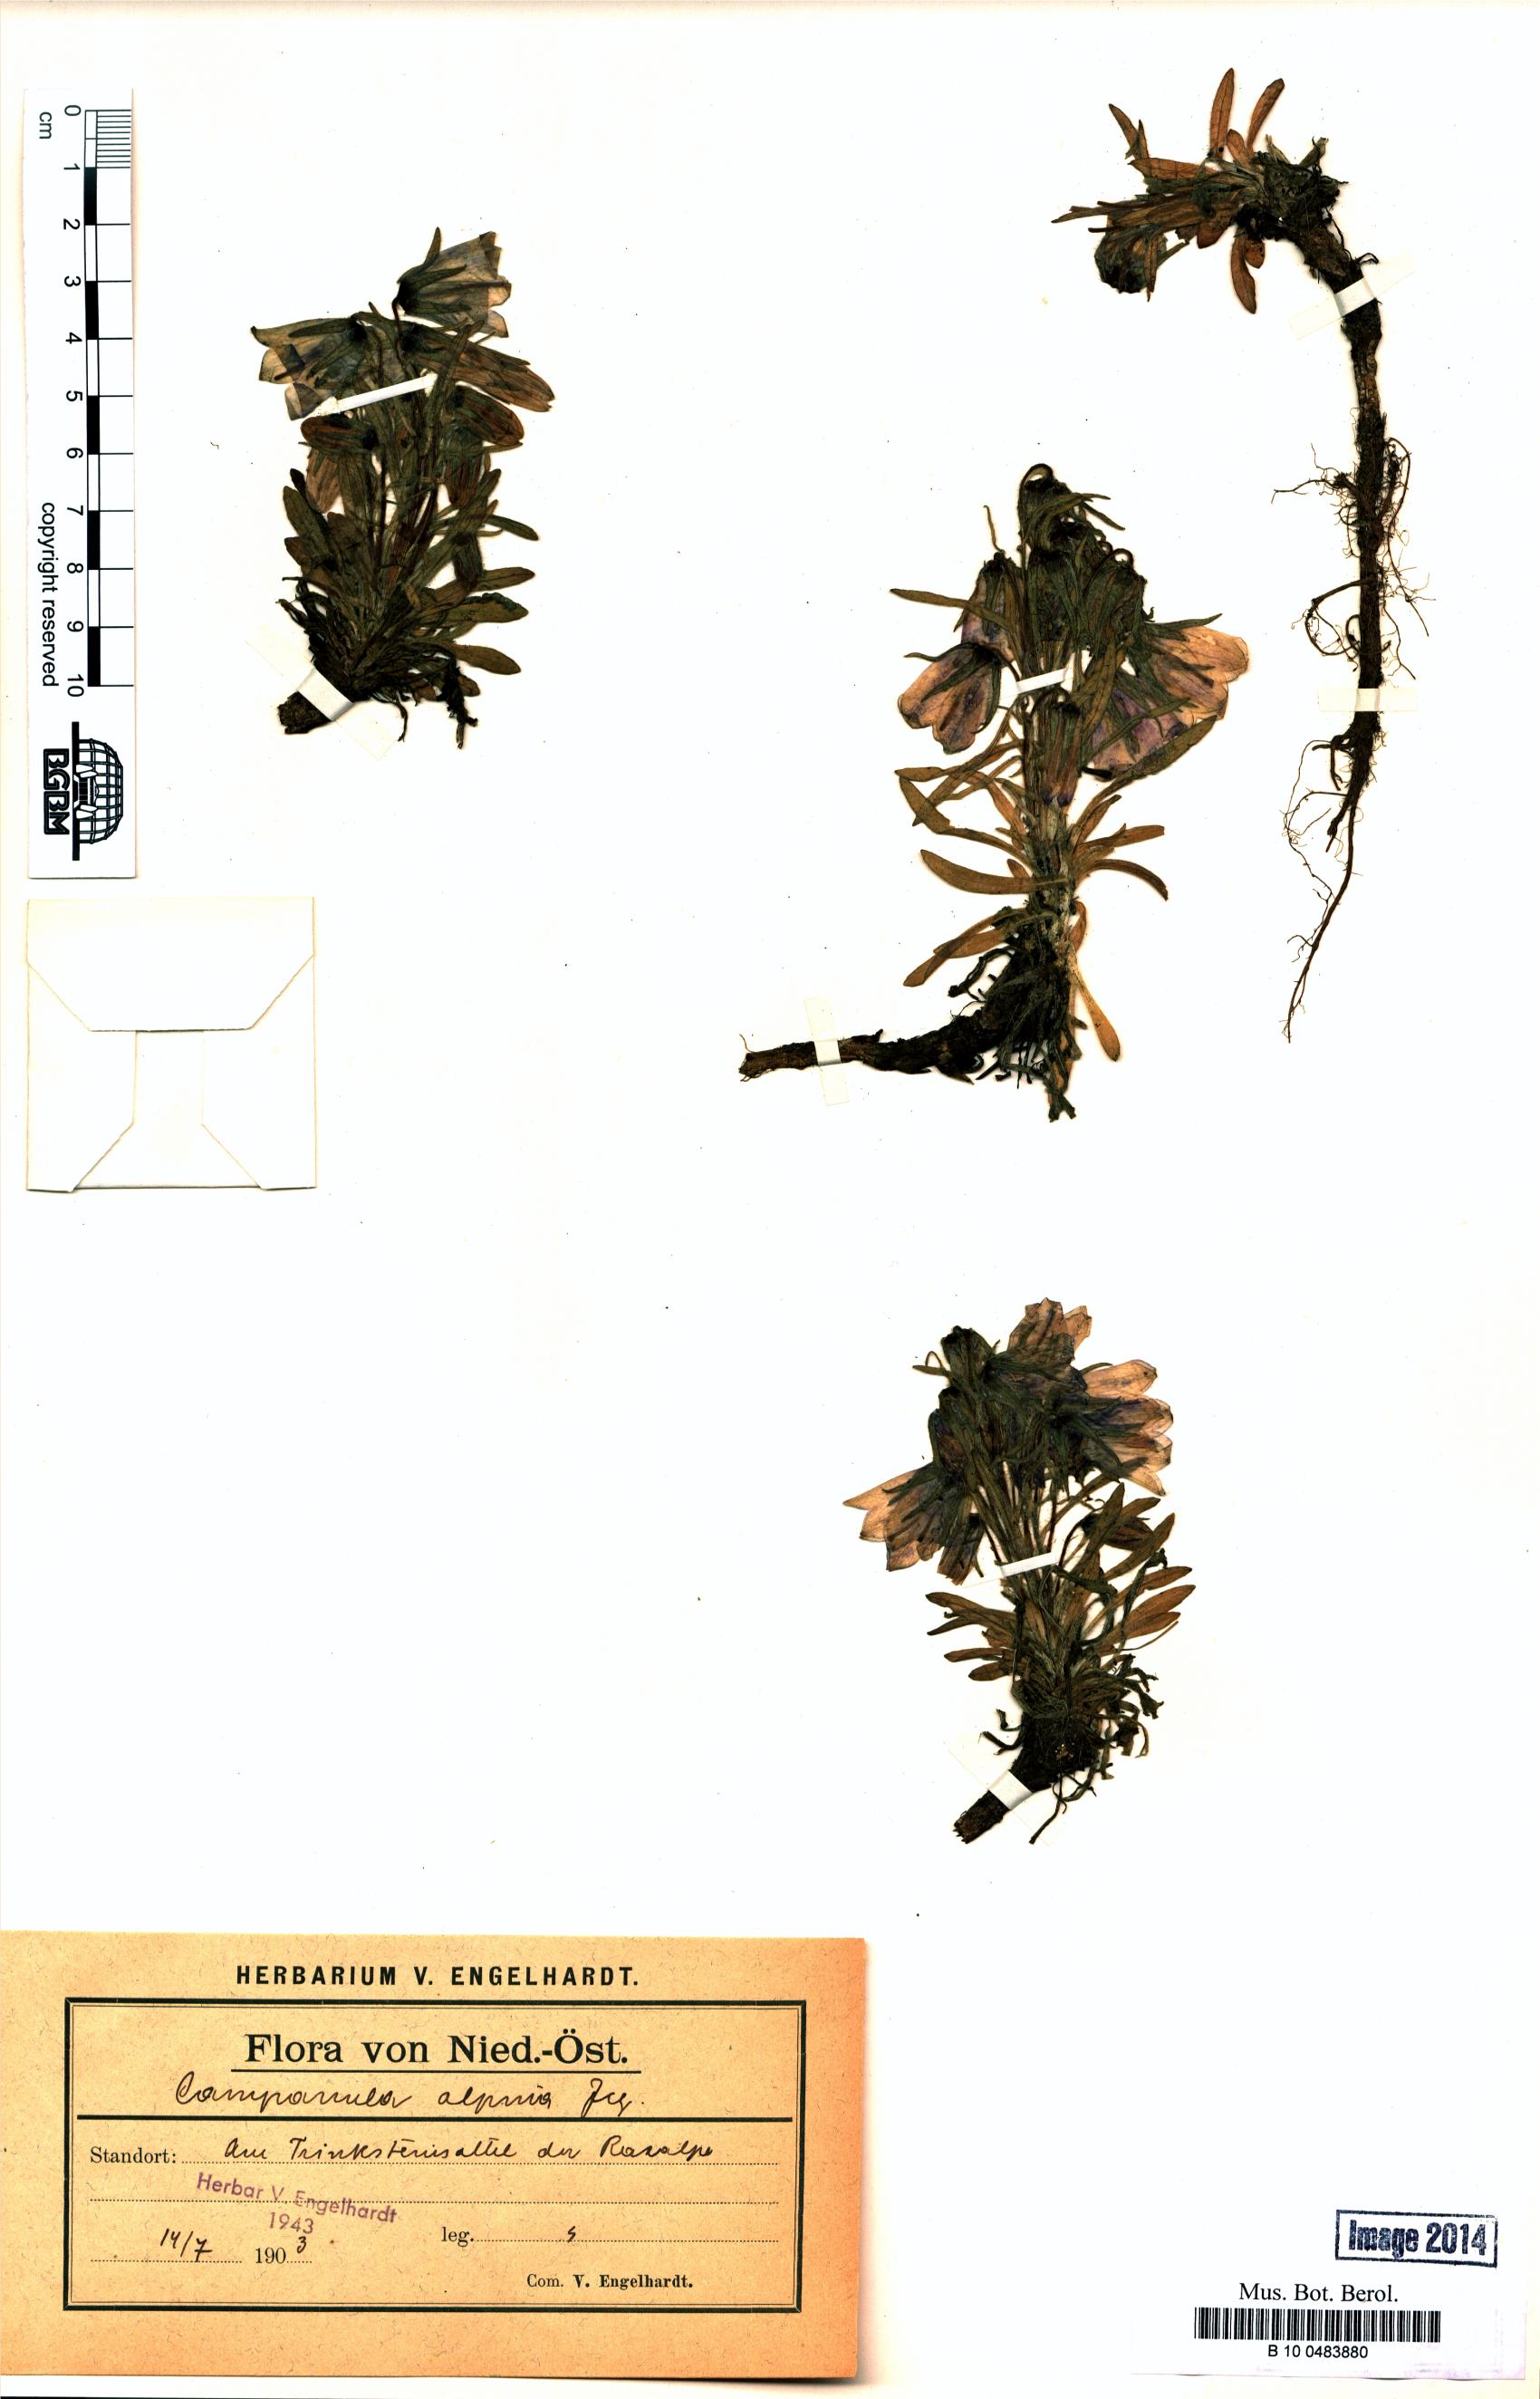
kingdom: Plantae
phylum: Tracheophyta
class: Magnoliopsida
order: Asterales
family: Campanulaceae
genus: Campanula
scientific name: Campanula alpina
